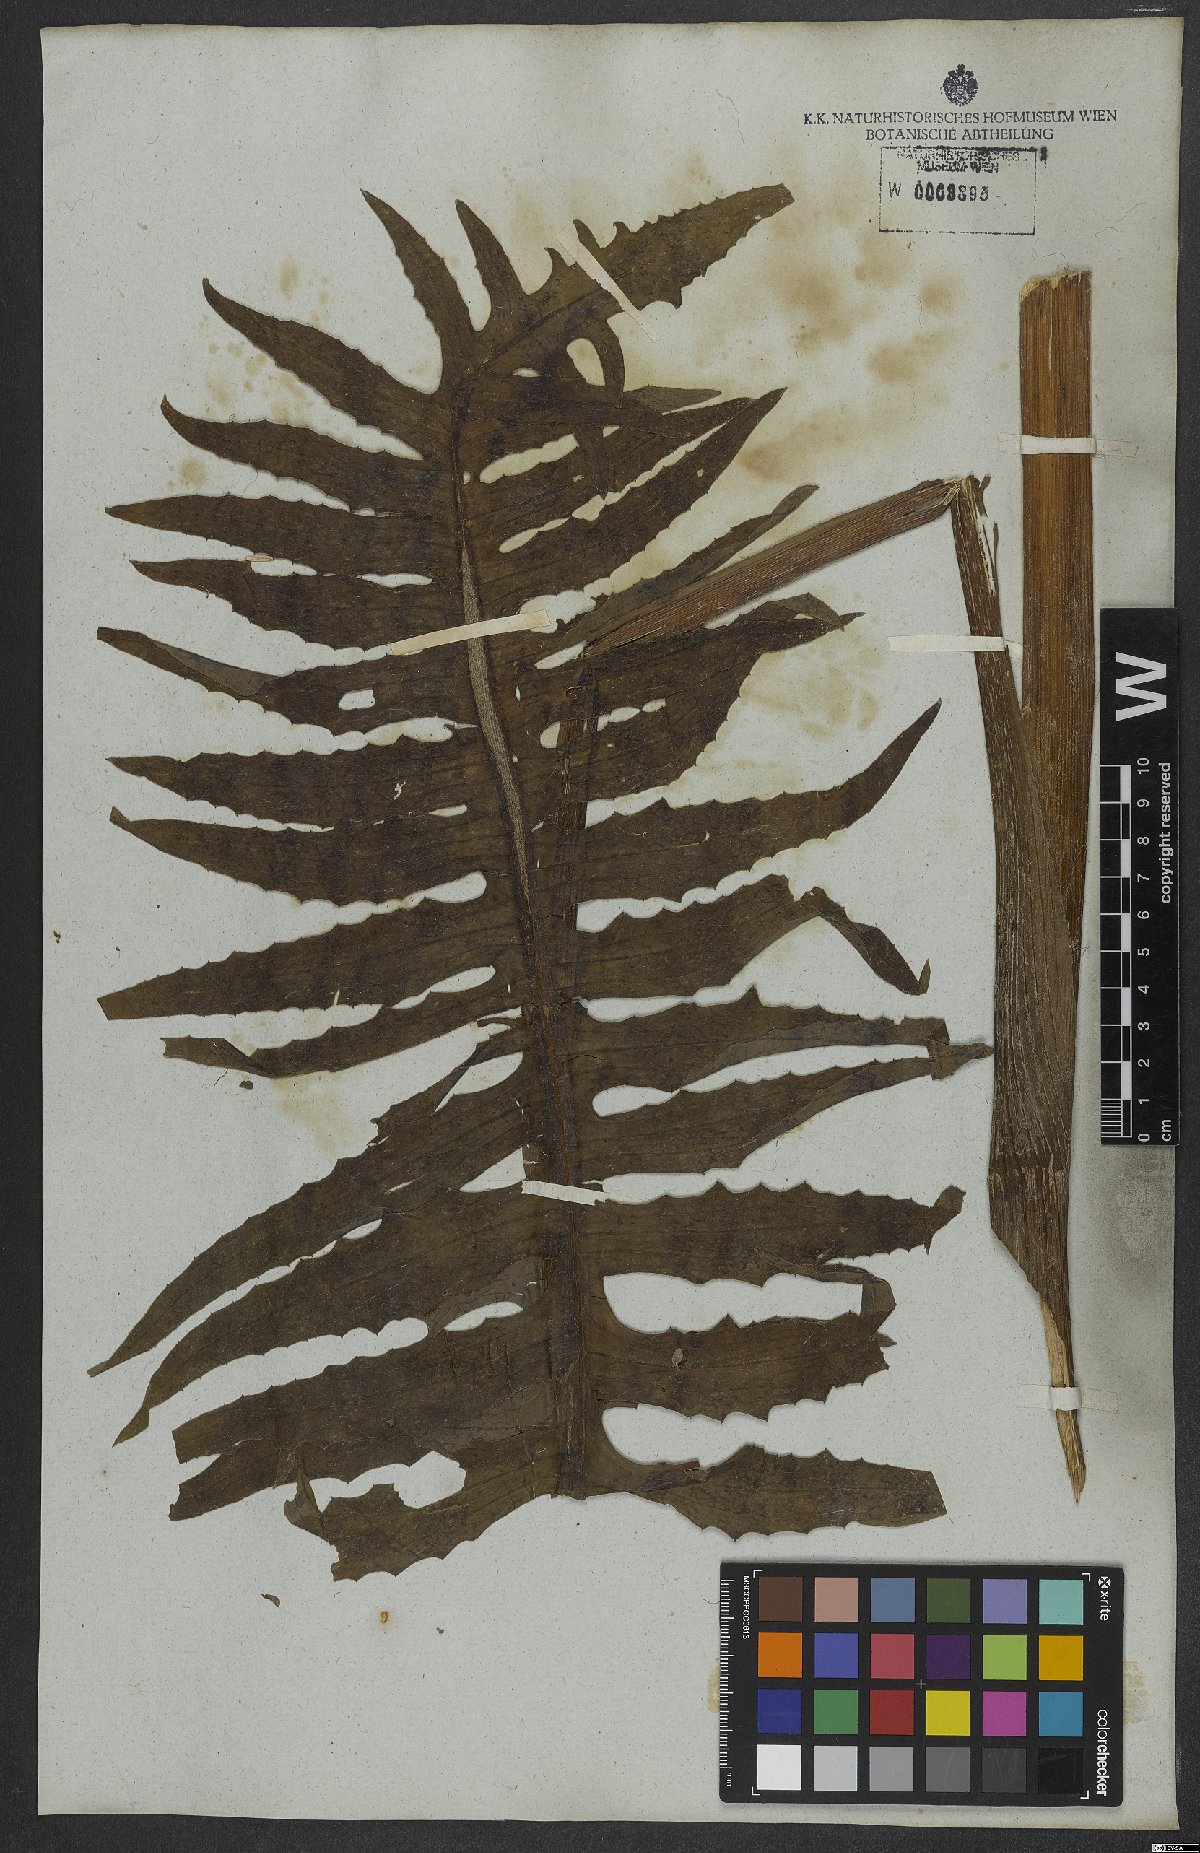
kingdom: Plantae
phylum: Tracheophyta
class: Magnoliopsida
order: Asterales
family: Asteraceae
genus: Senecio
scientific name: Senecio erisithalifolius
